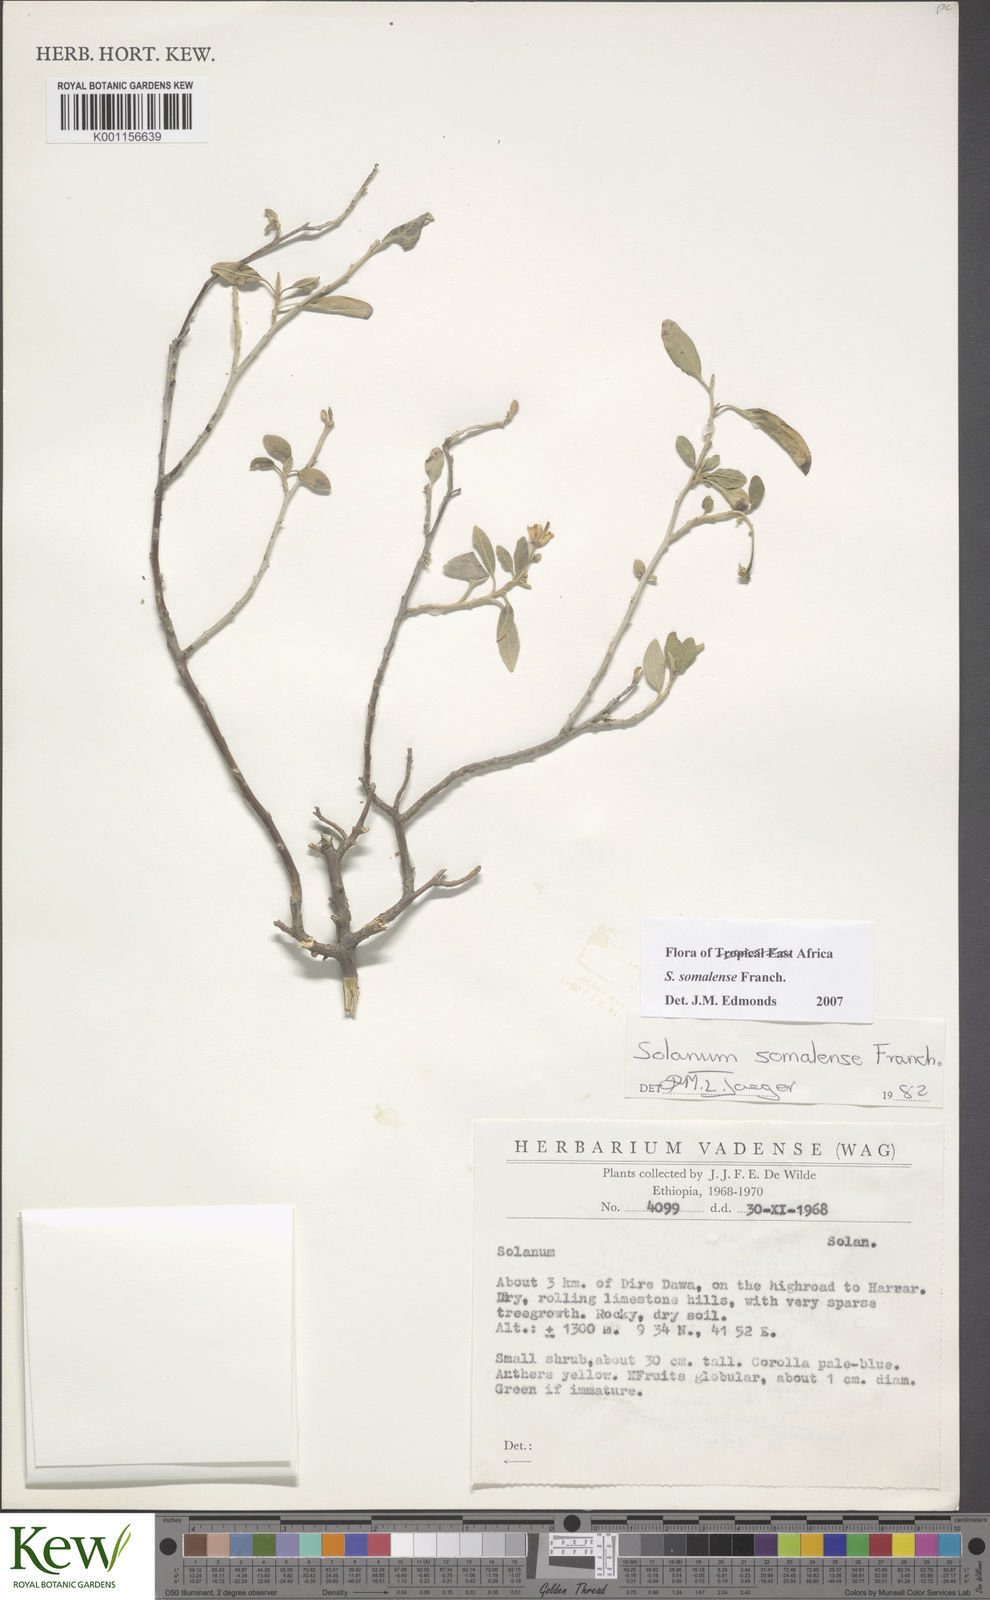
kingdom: Plantae
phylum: Tracheophyta
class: Magnoliopsida
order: Solanales
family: Solanaceae
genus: Solanum
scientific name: Solanum somalense
